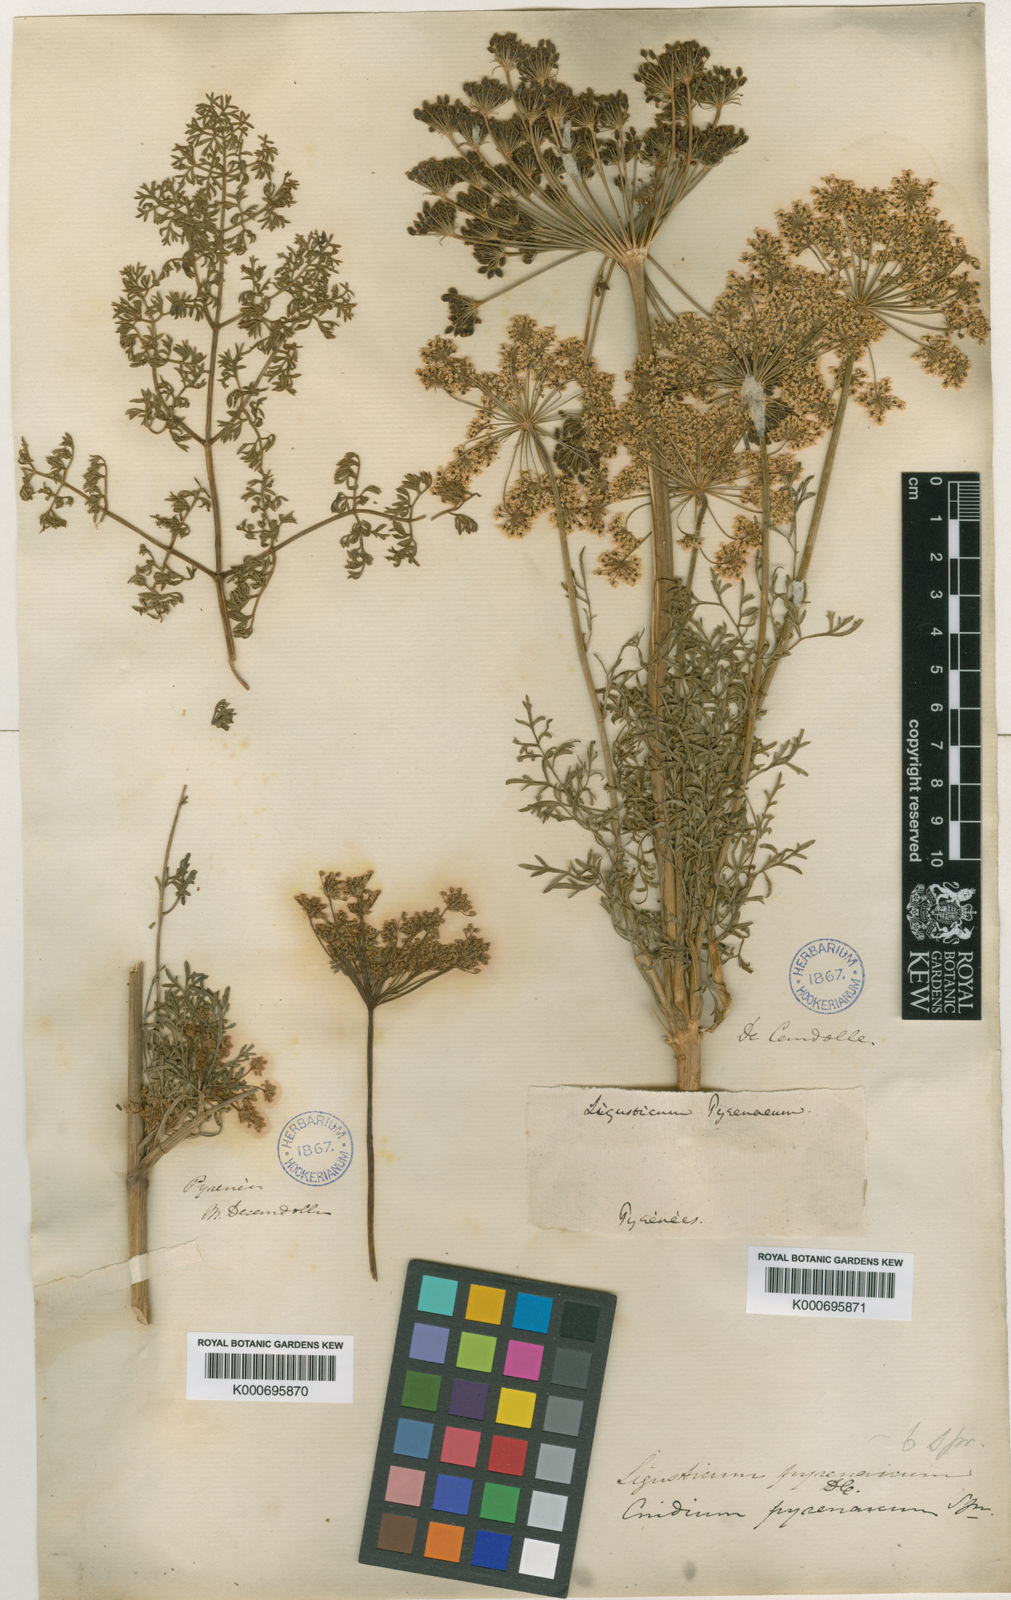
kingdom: Plantae
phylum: Tracheophyta
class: Magnoliopsida
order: Apiales
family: Apiaceae
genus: Ligusticum
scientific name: Ligusticum
